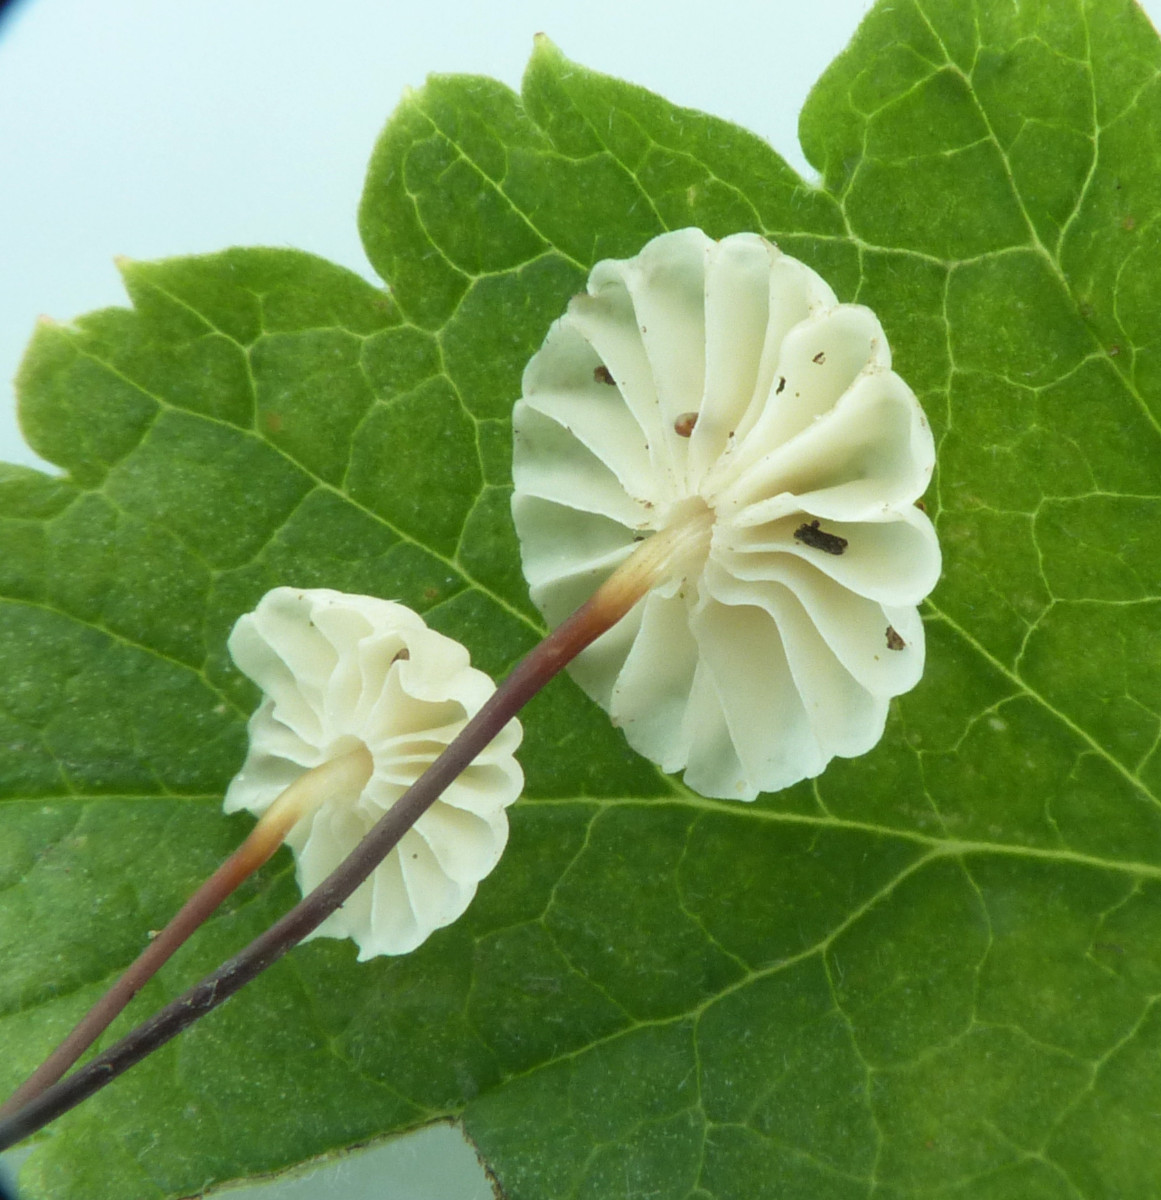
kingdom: Fungi
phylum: Basidiomycota
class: Agaricomycetes
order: Agaricales
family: Marasmiaceae
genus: Marasmius
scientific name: Marasmius rotula
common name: hjul-bruskhat
